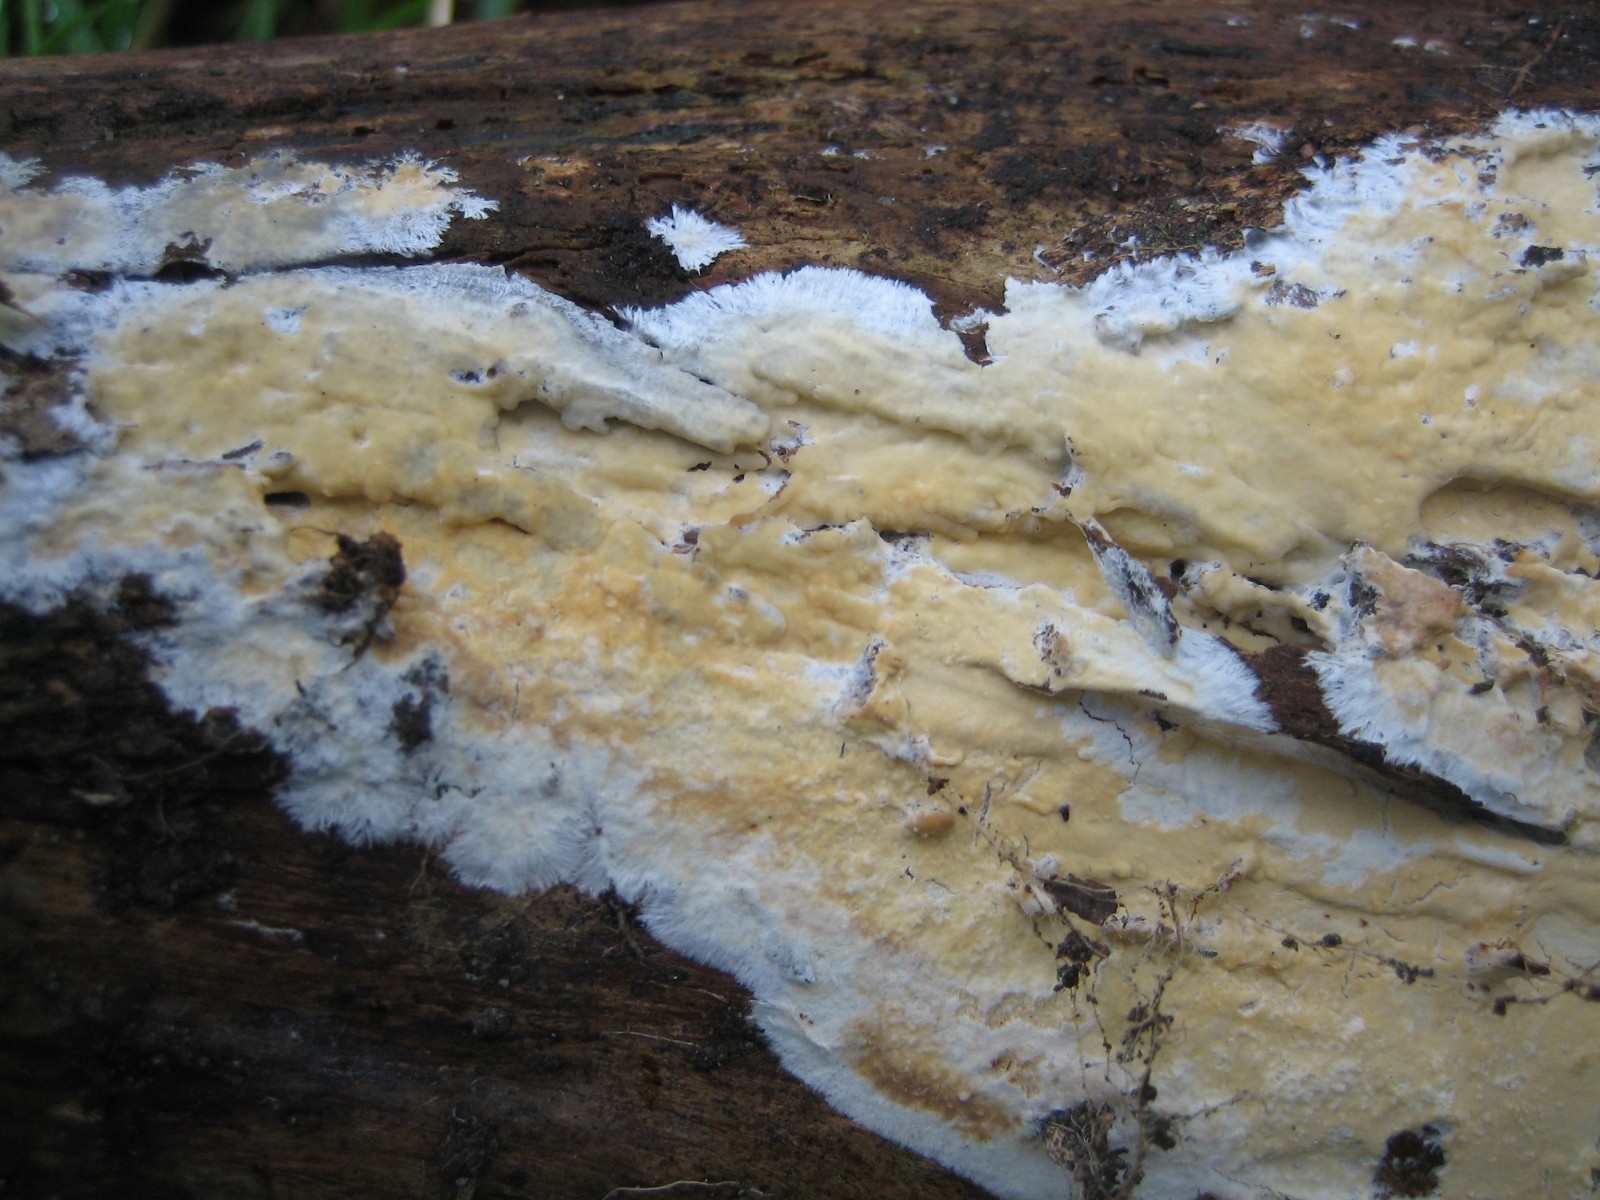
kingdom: Fungi
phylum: Basidiomycota
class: Agaricomycetes
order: Corticiales
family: Corticiaceae
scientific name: Corticiaceae
